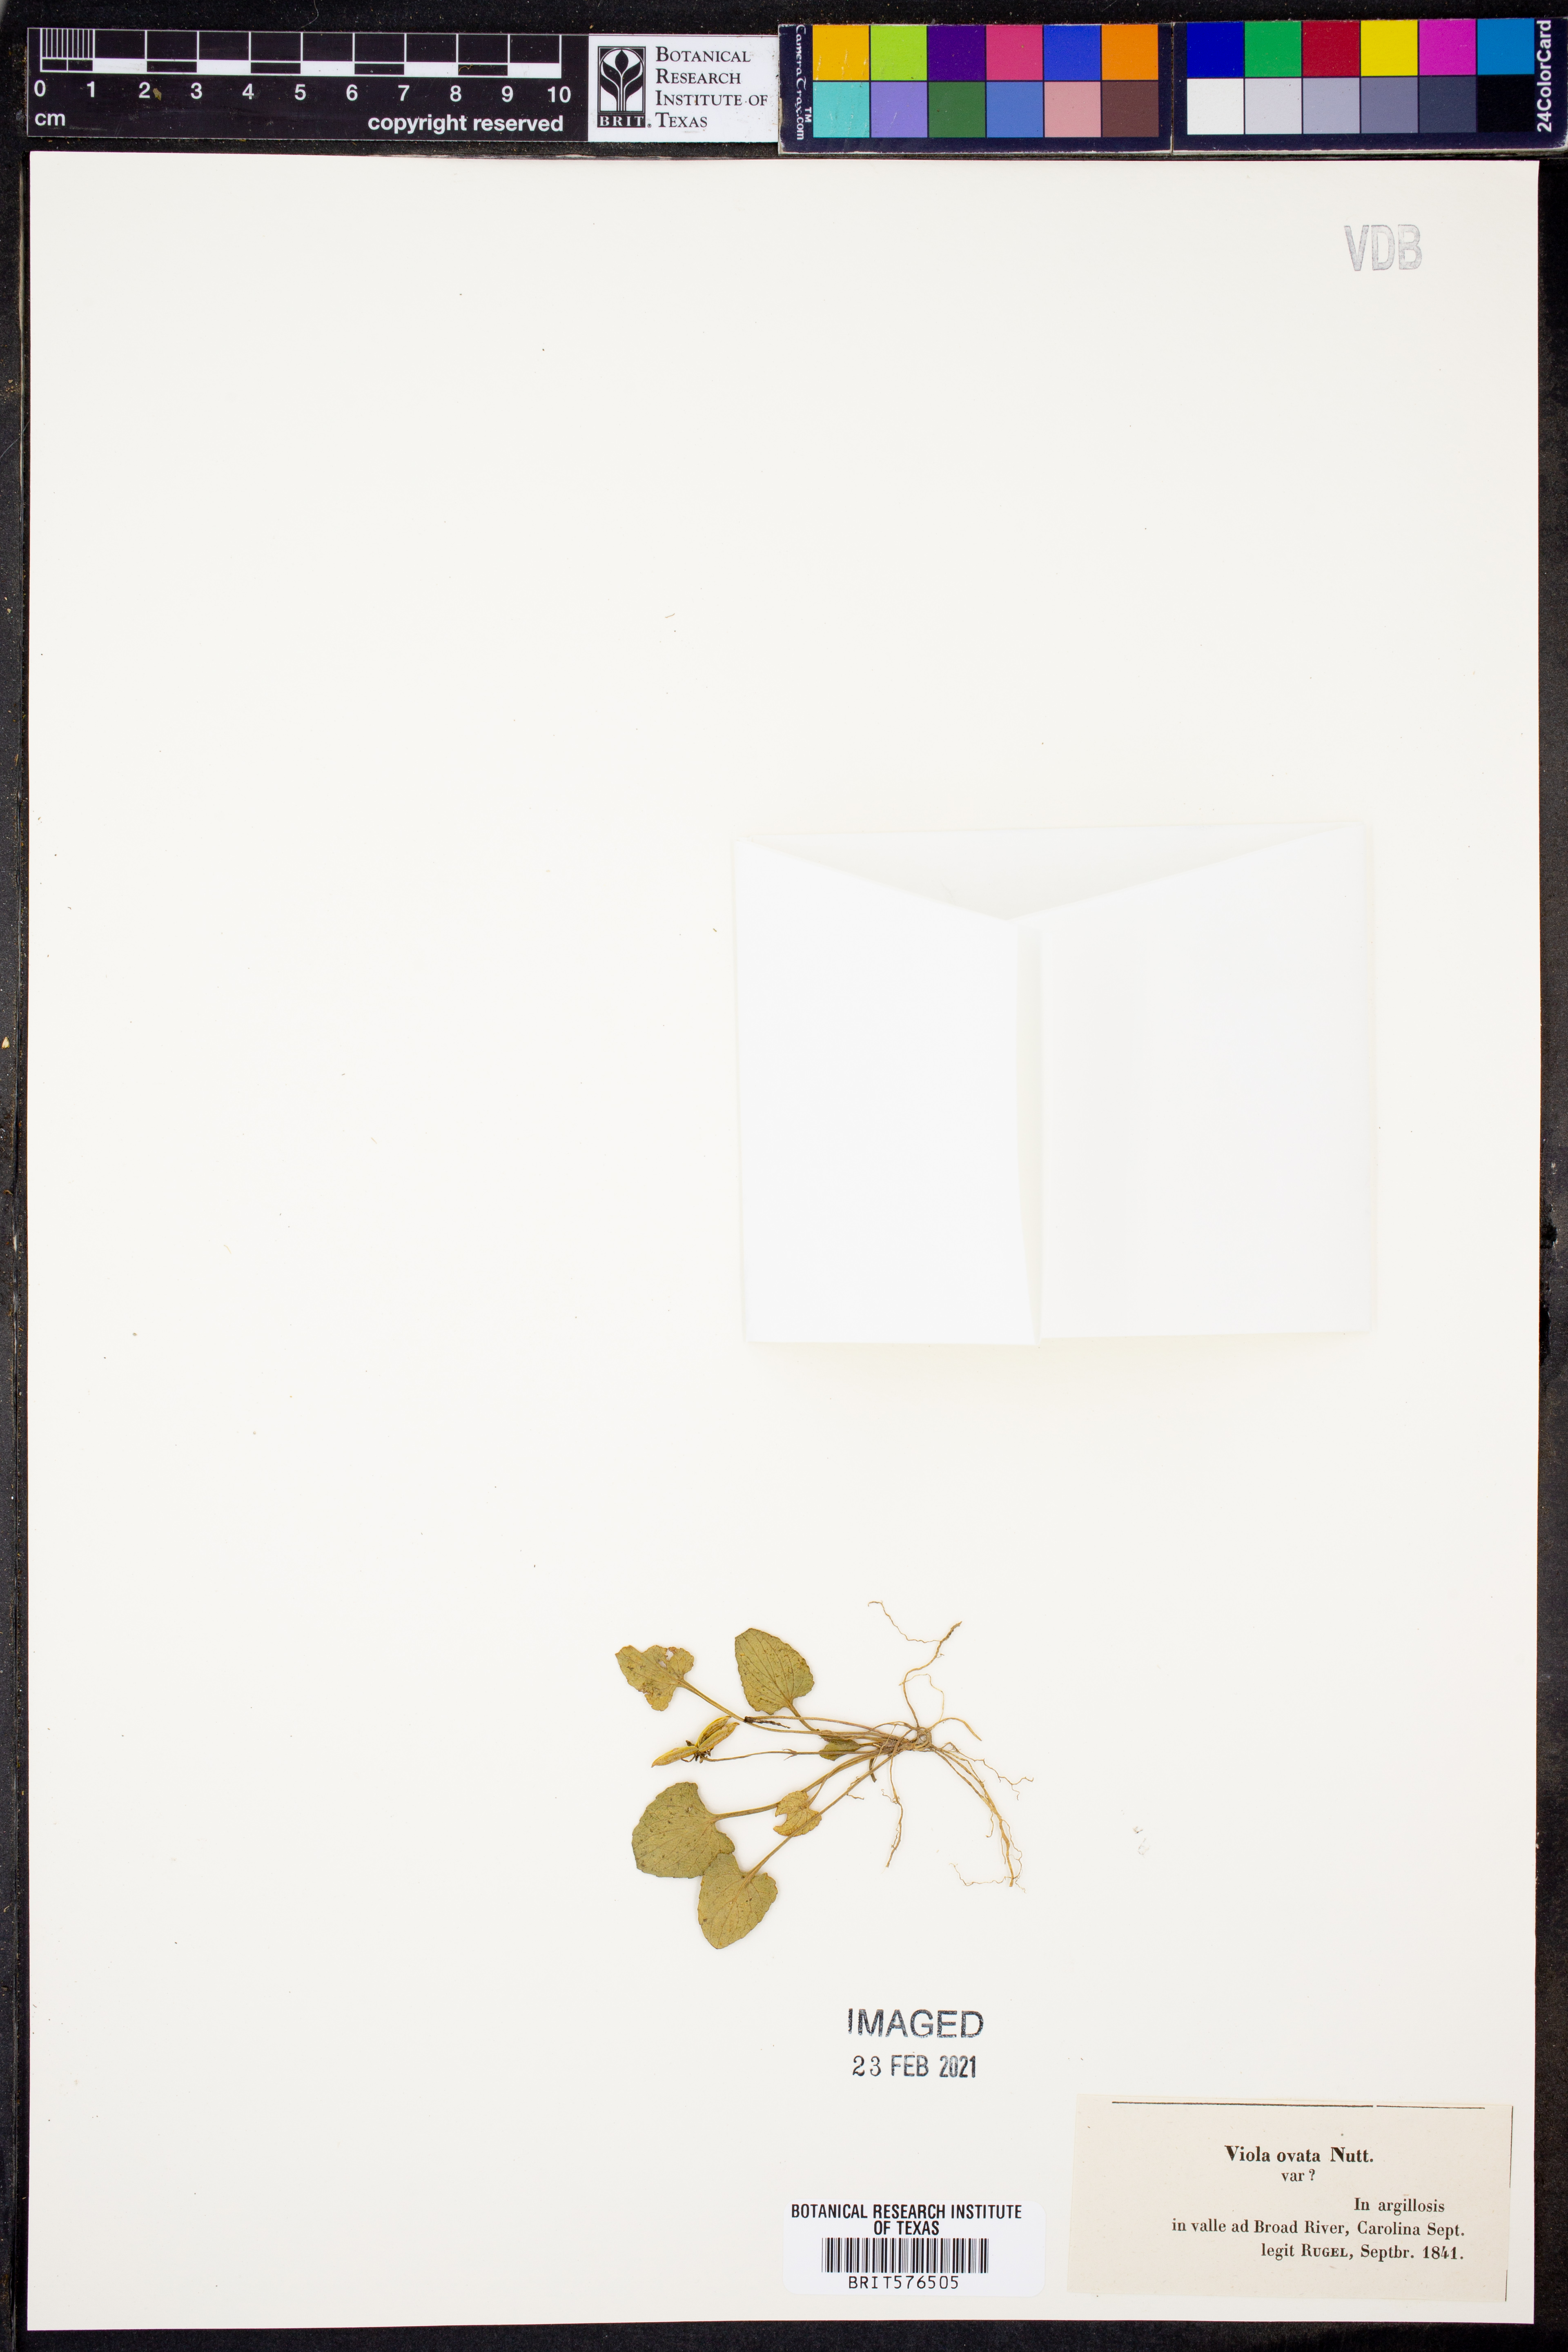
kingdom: Plantae
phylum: Tracheophyta
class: Magnoliopsida
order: Malpighiales
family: Violaceae
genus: Viola
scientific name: Viola fimbriatula
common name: Sand violet
